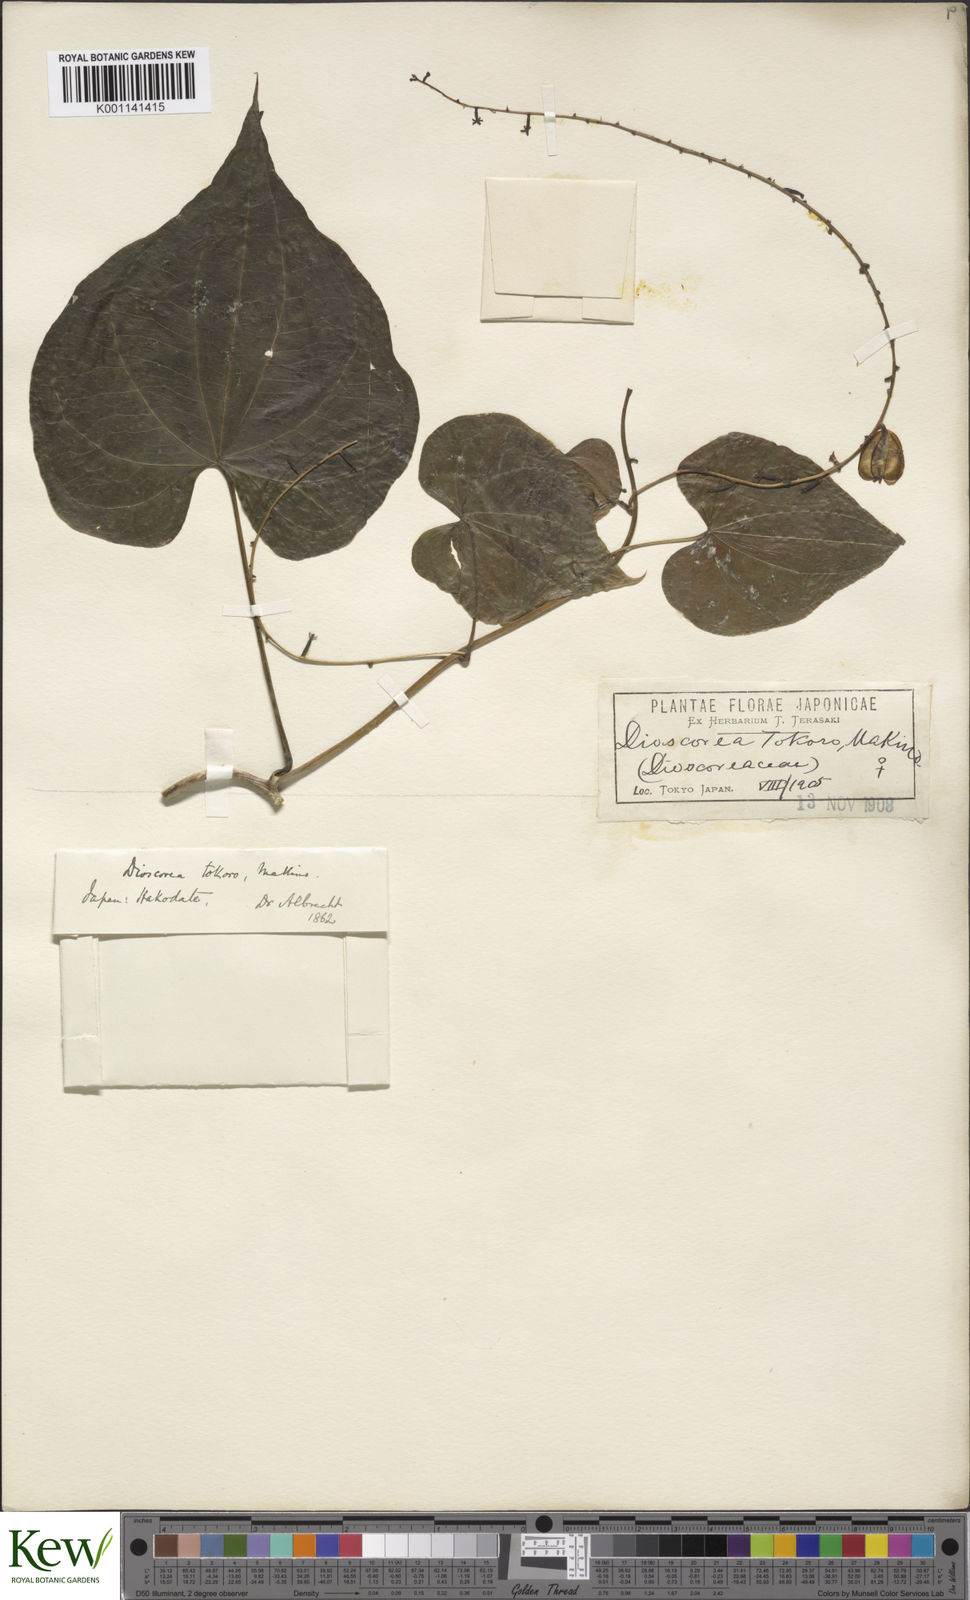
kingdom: Plantae
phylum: Tracheophyta
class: Liliopsida
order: Dioscoreales
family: Dioscoreaceae
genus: Dioscorea
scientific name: Dioscorea tokoro
